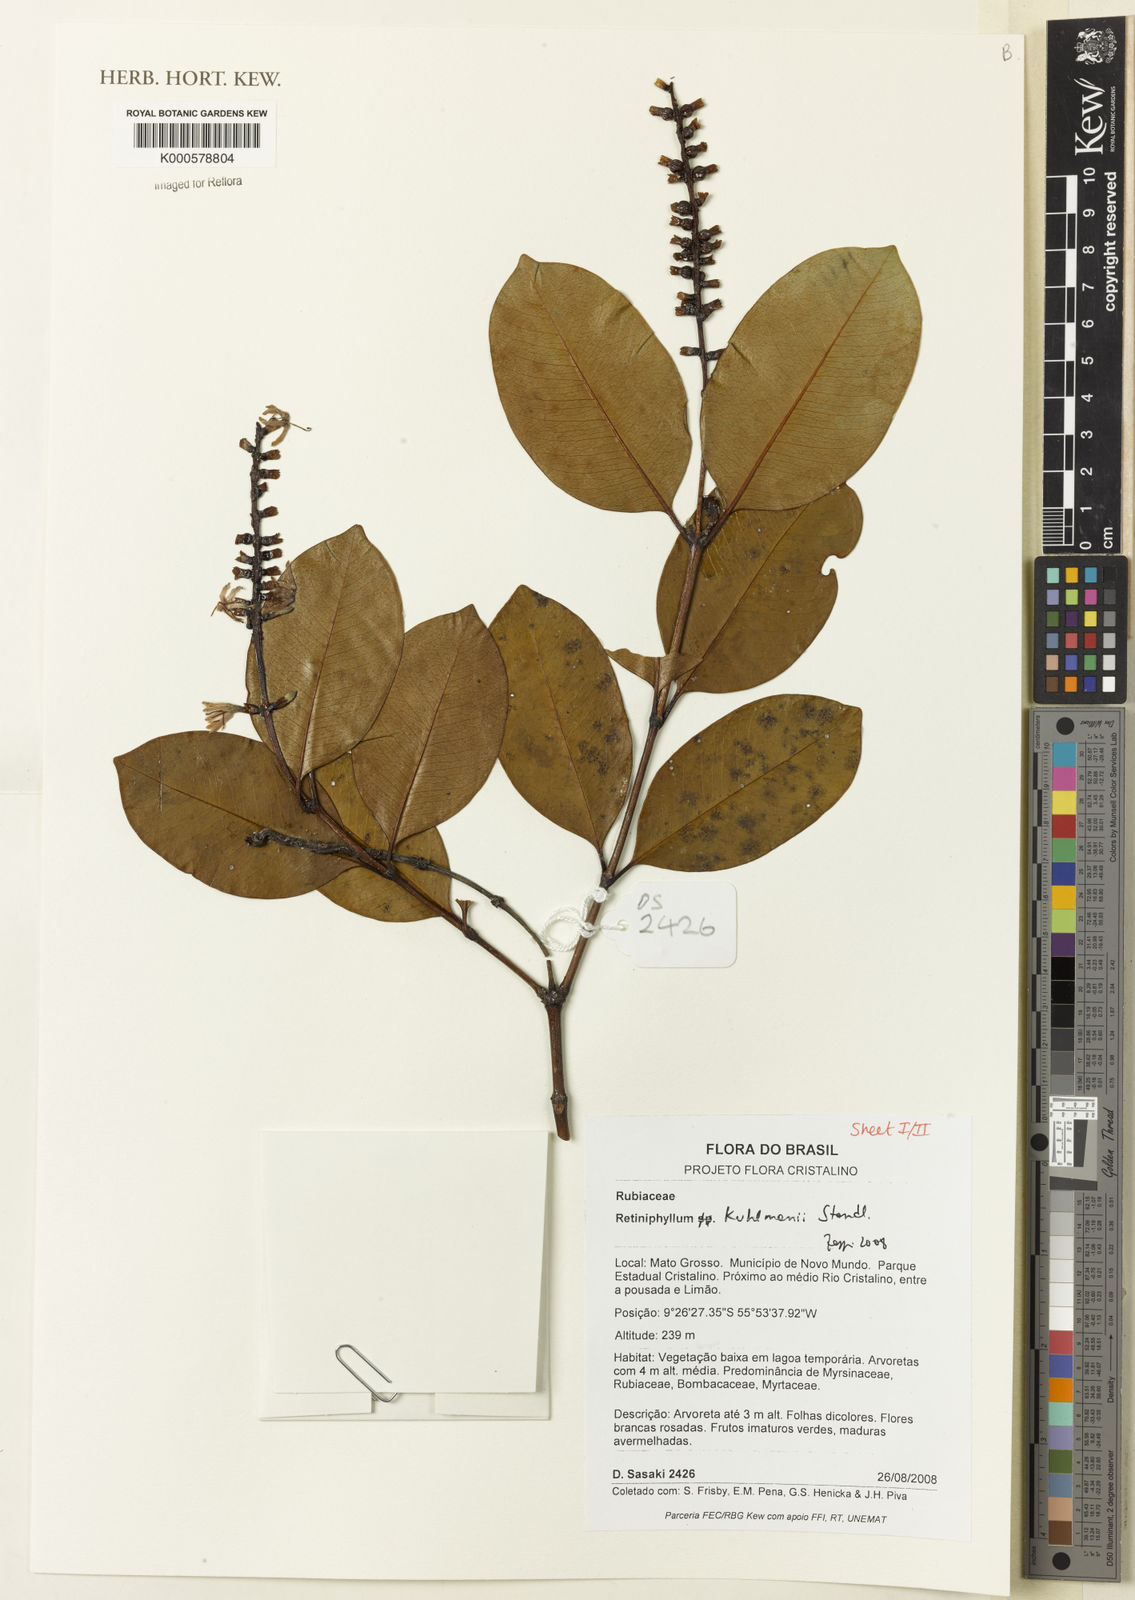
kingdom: Plantae
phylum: Tracheophyta
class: Magnoliopsida
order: Gentianales
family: Rubiaceae
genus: Retiniphyllum
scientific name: Retiniphyllum kuhlmannii
